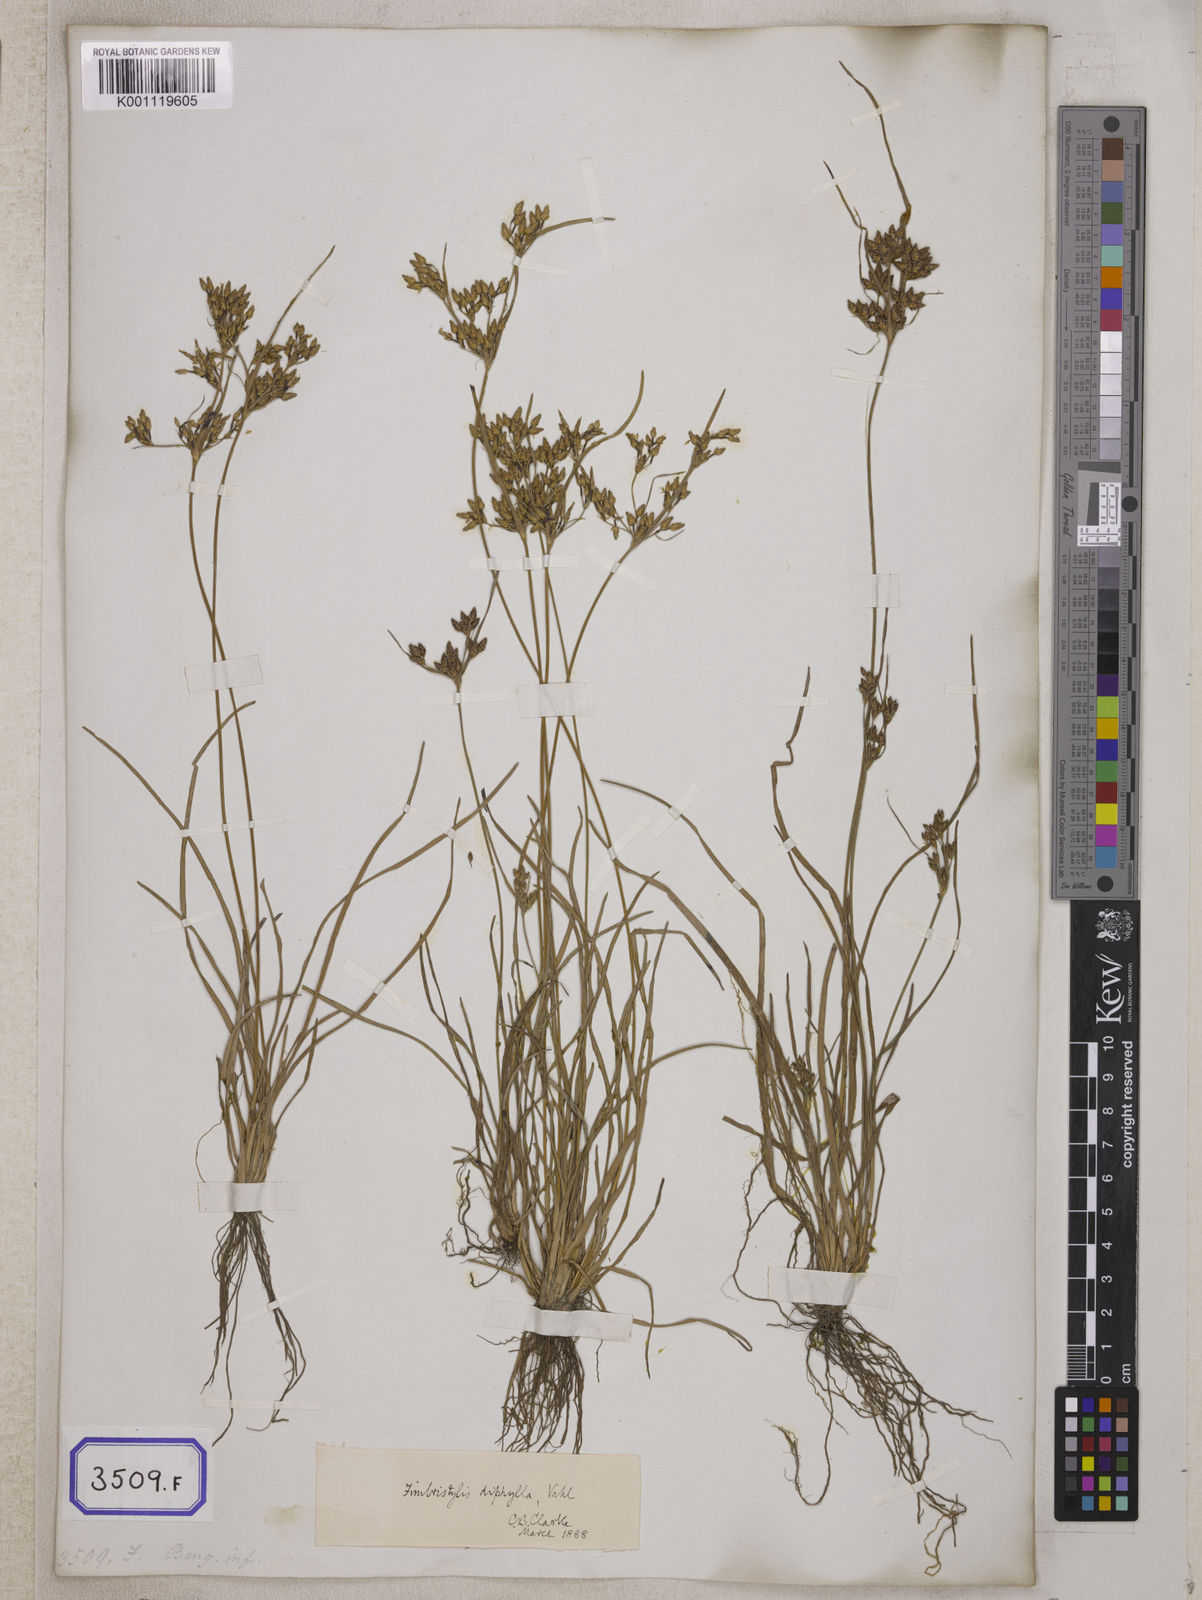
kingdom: Plantae
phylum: Tracheophyta
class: Liliopsida
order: Poales
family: Cyperaceae
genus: Fimbristylis
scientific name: Fimbristylis
